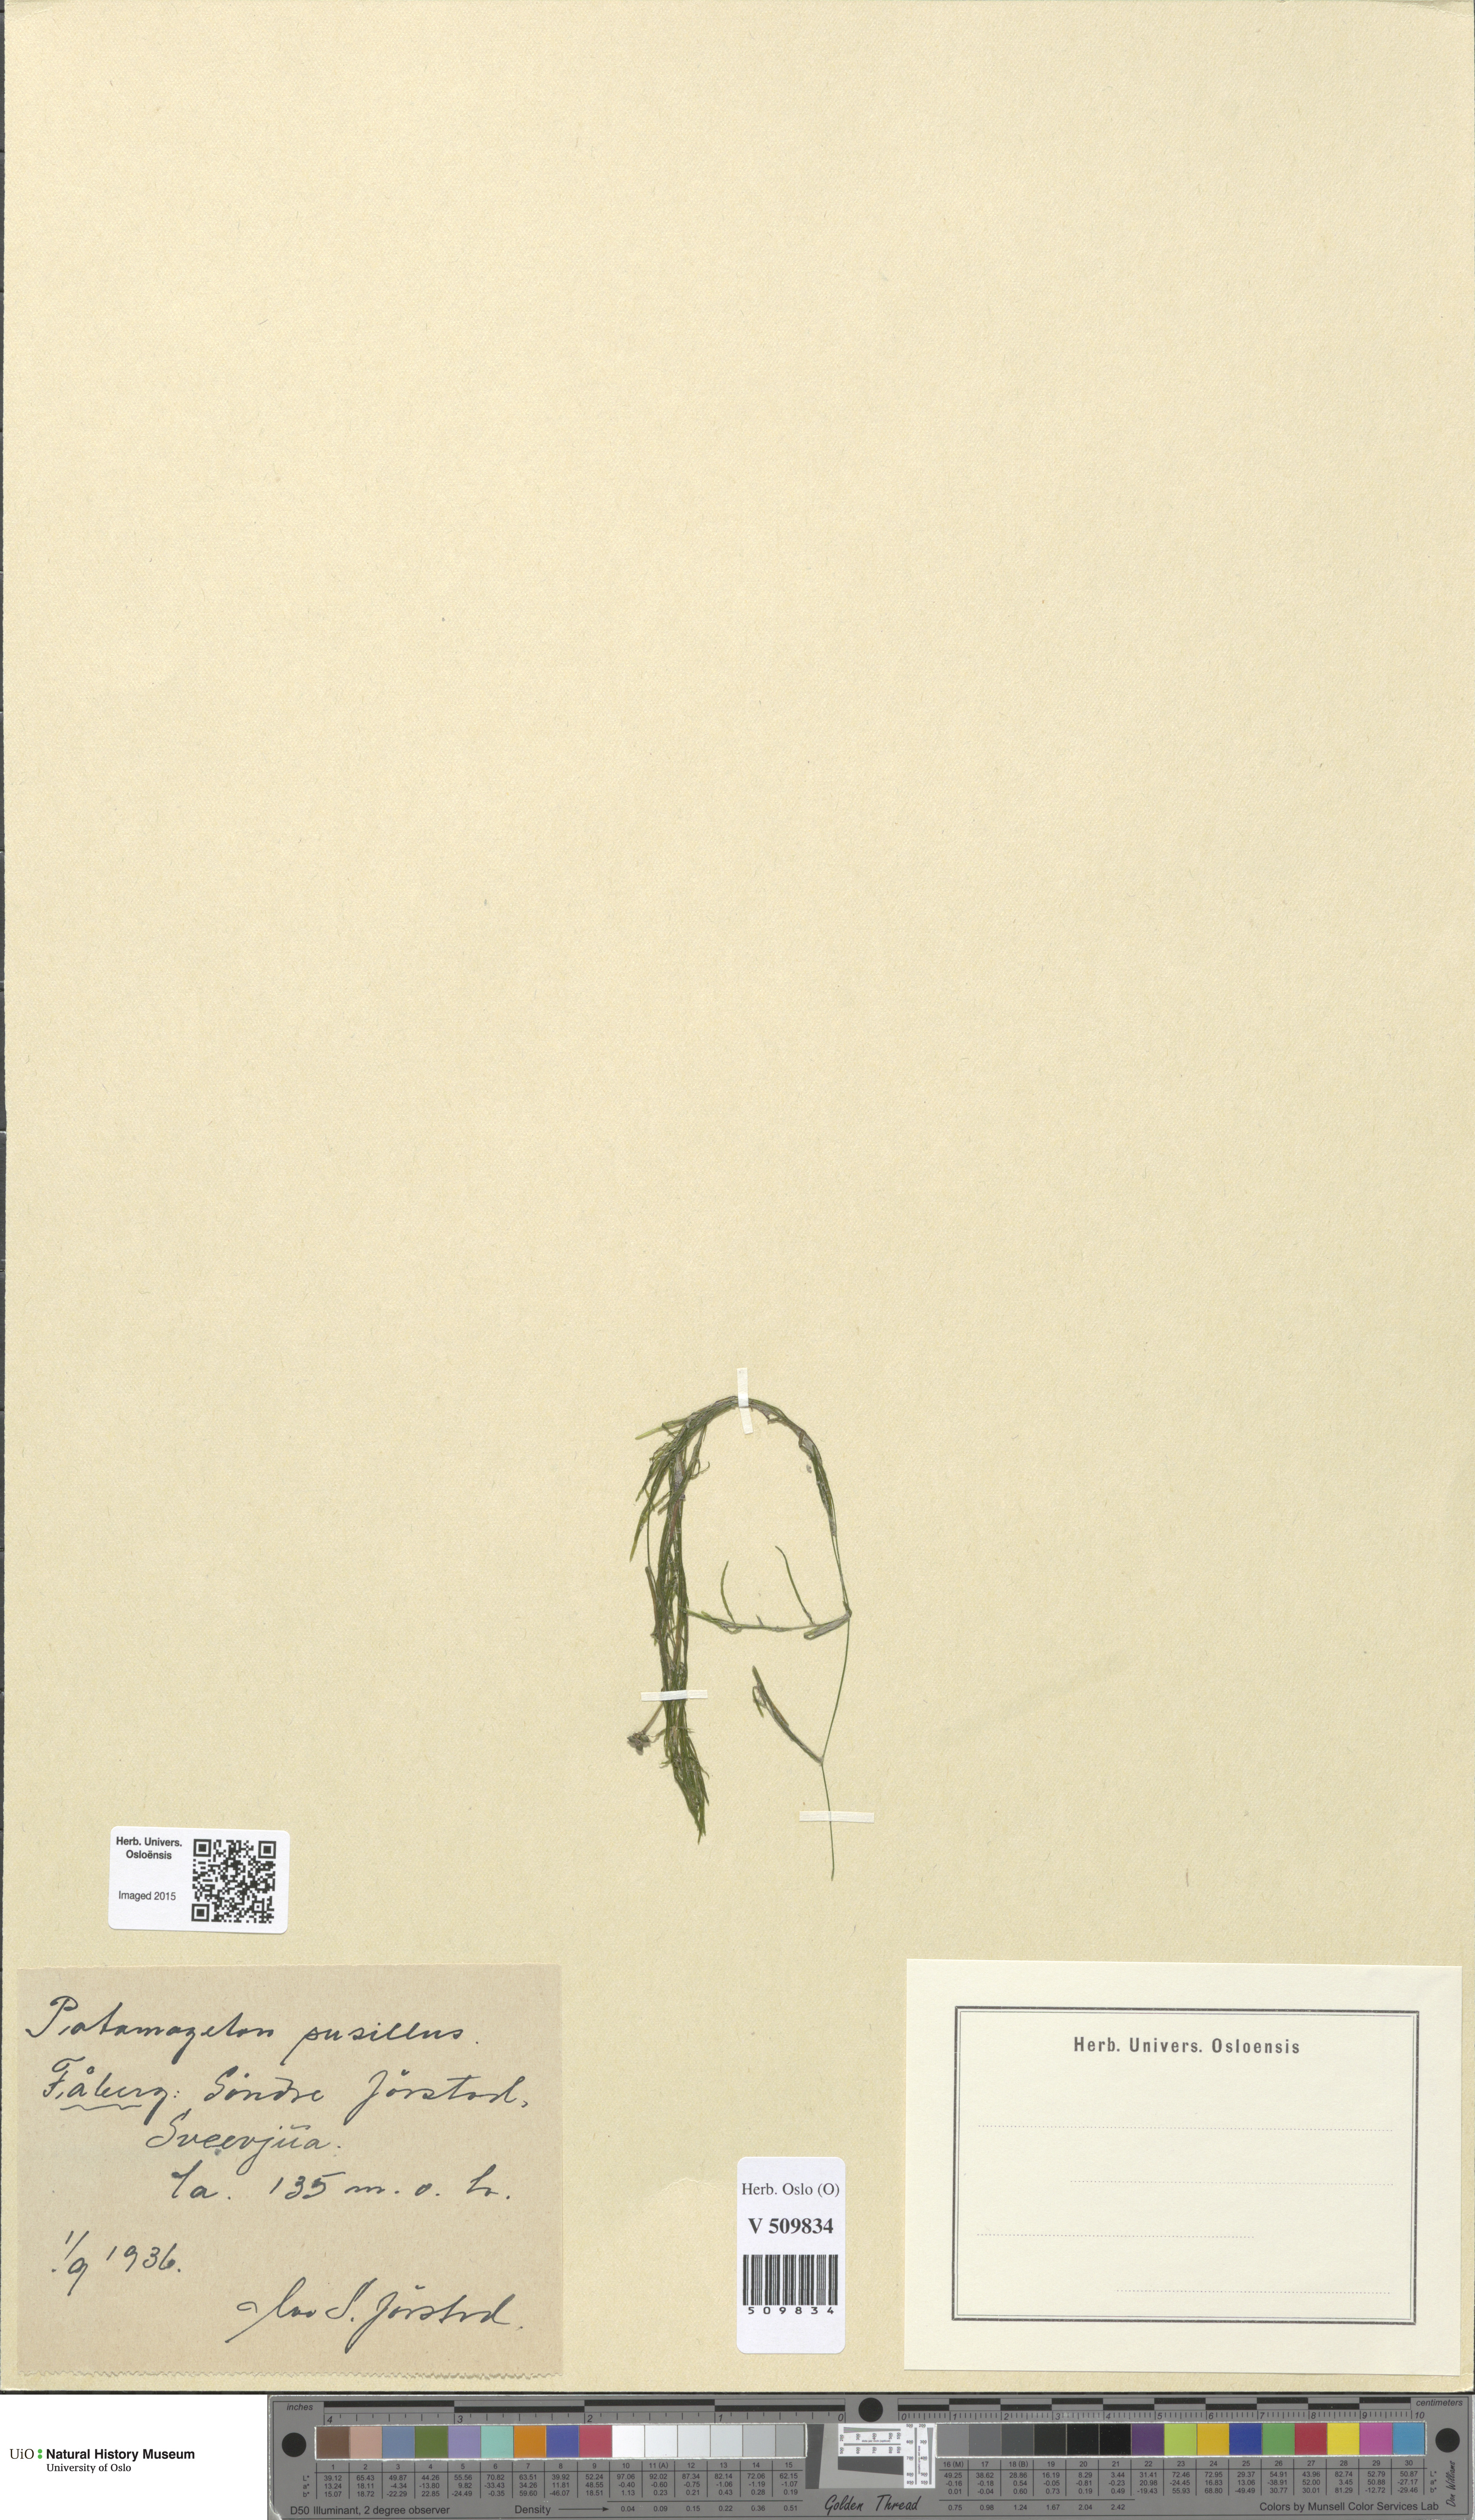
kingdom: Plantae
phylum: Tracheophyta
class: Liliopsida
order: Alismatales
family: Potamogetonaceae
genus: Potamogeton
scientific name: Potamogeton berchtoldii
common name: Small pondweed
